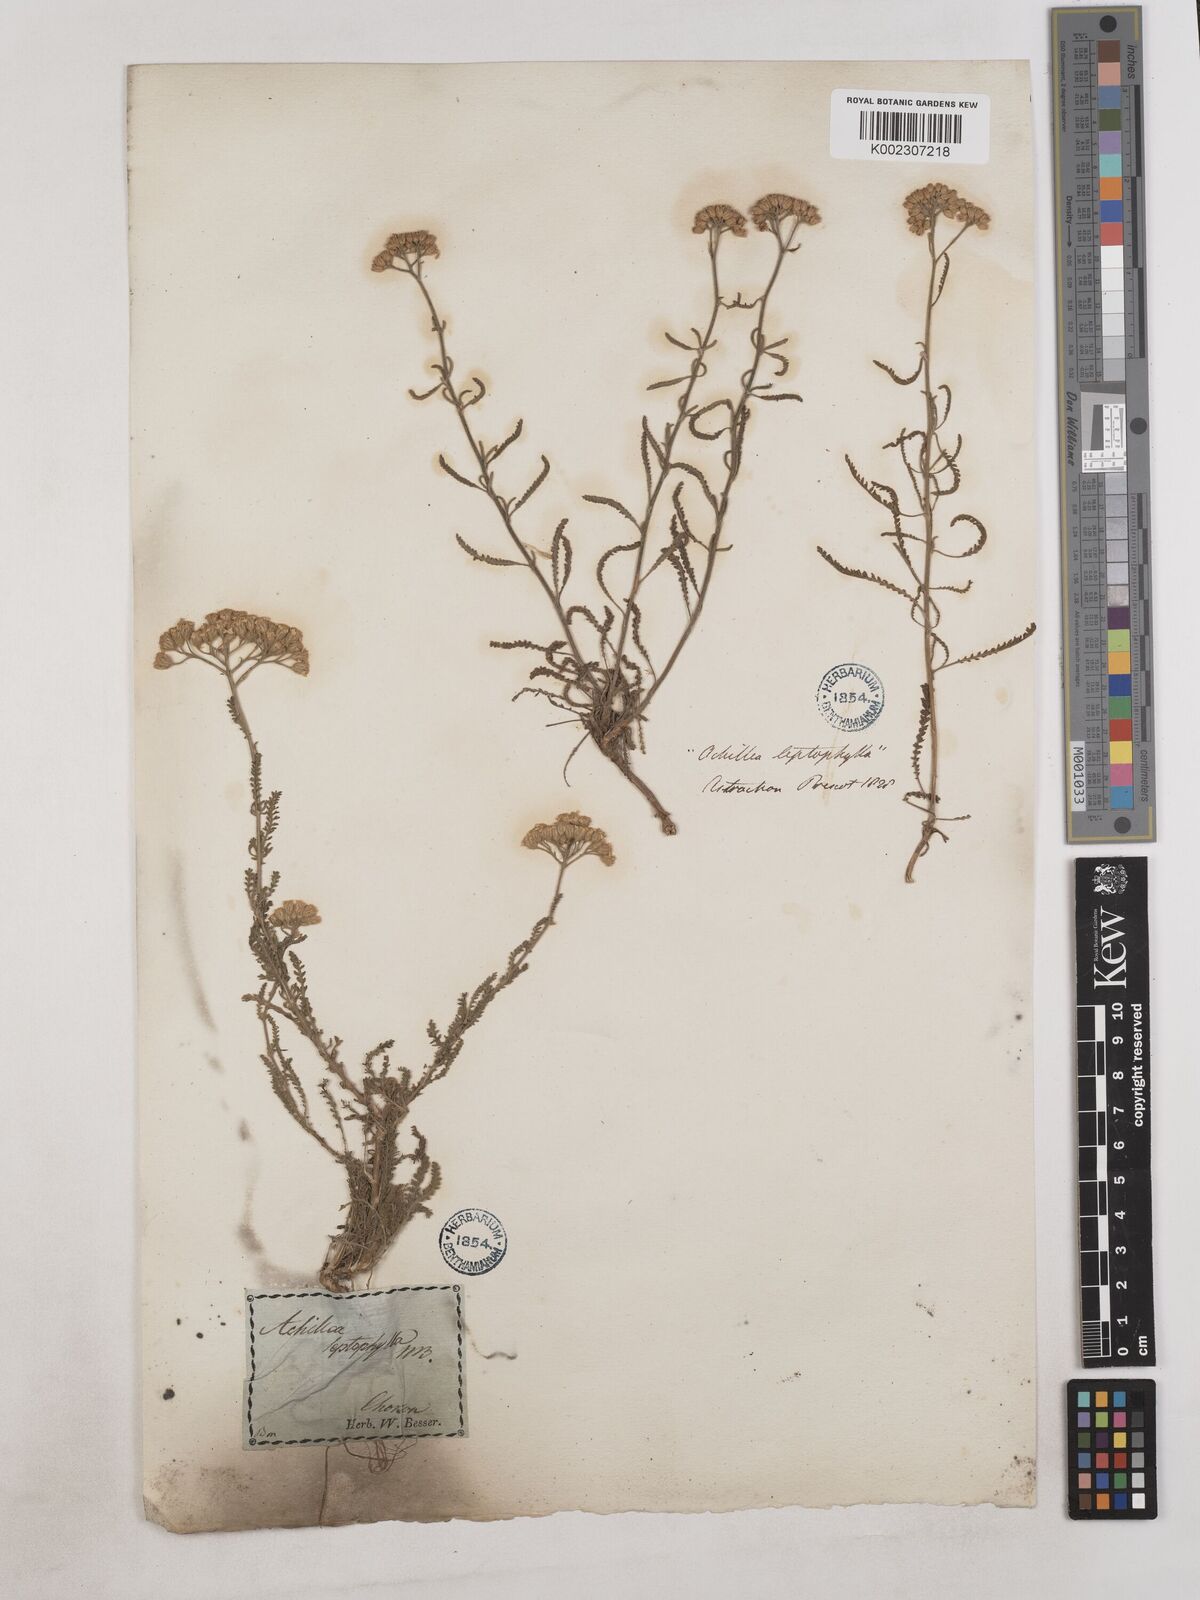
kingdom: Plantae
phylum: Tracheophyta
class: Magnoliopsida
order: Asterales
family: Asteraceae
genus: Achillea
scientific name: Achillea leptophylla
